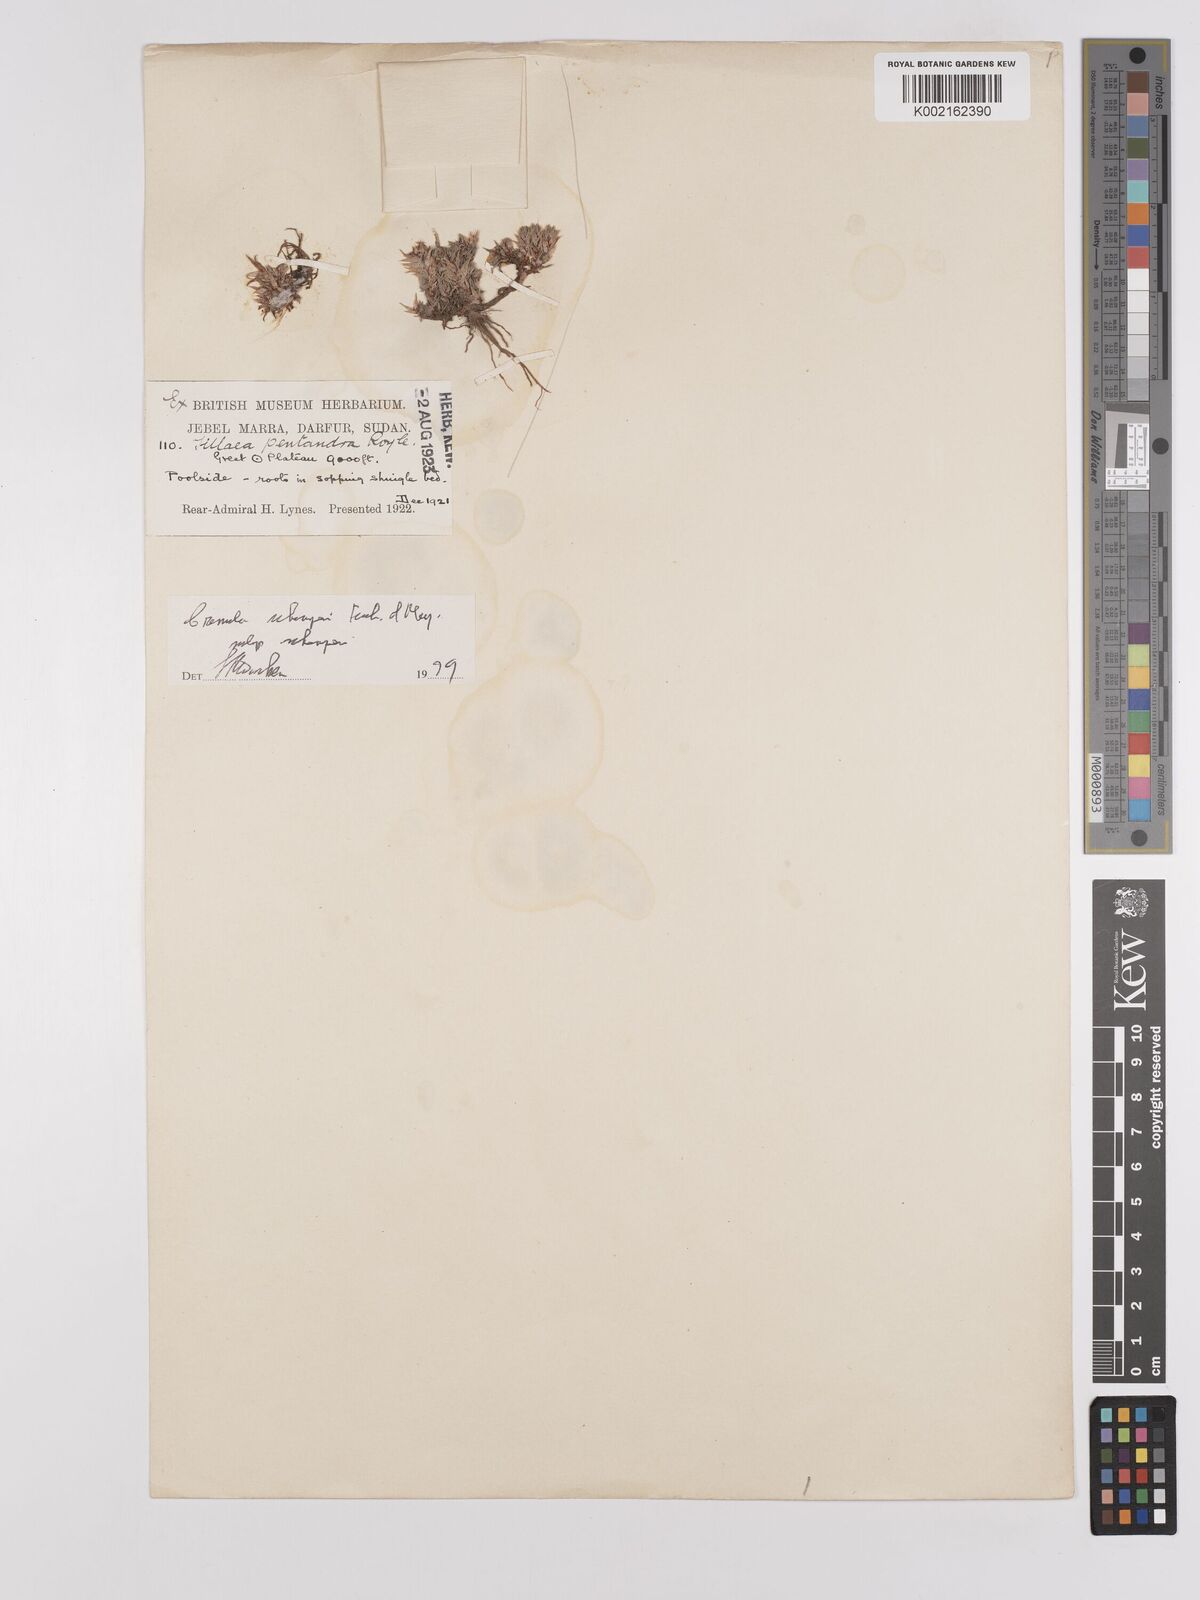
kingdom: Plantae
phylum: Tracheophyta
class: Magnoliopsida
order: Saxifragales
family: Crassulaceae
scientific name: Crassulaceae
